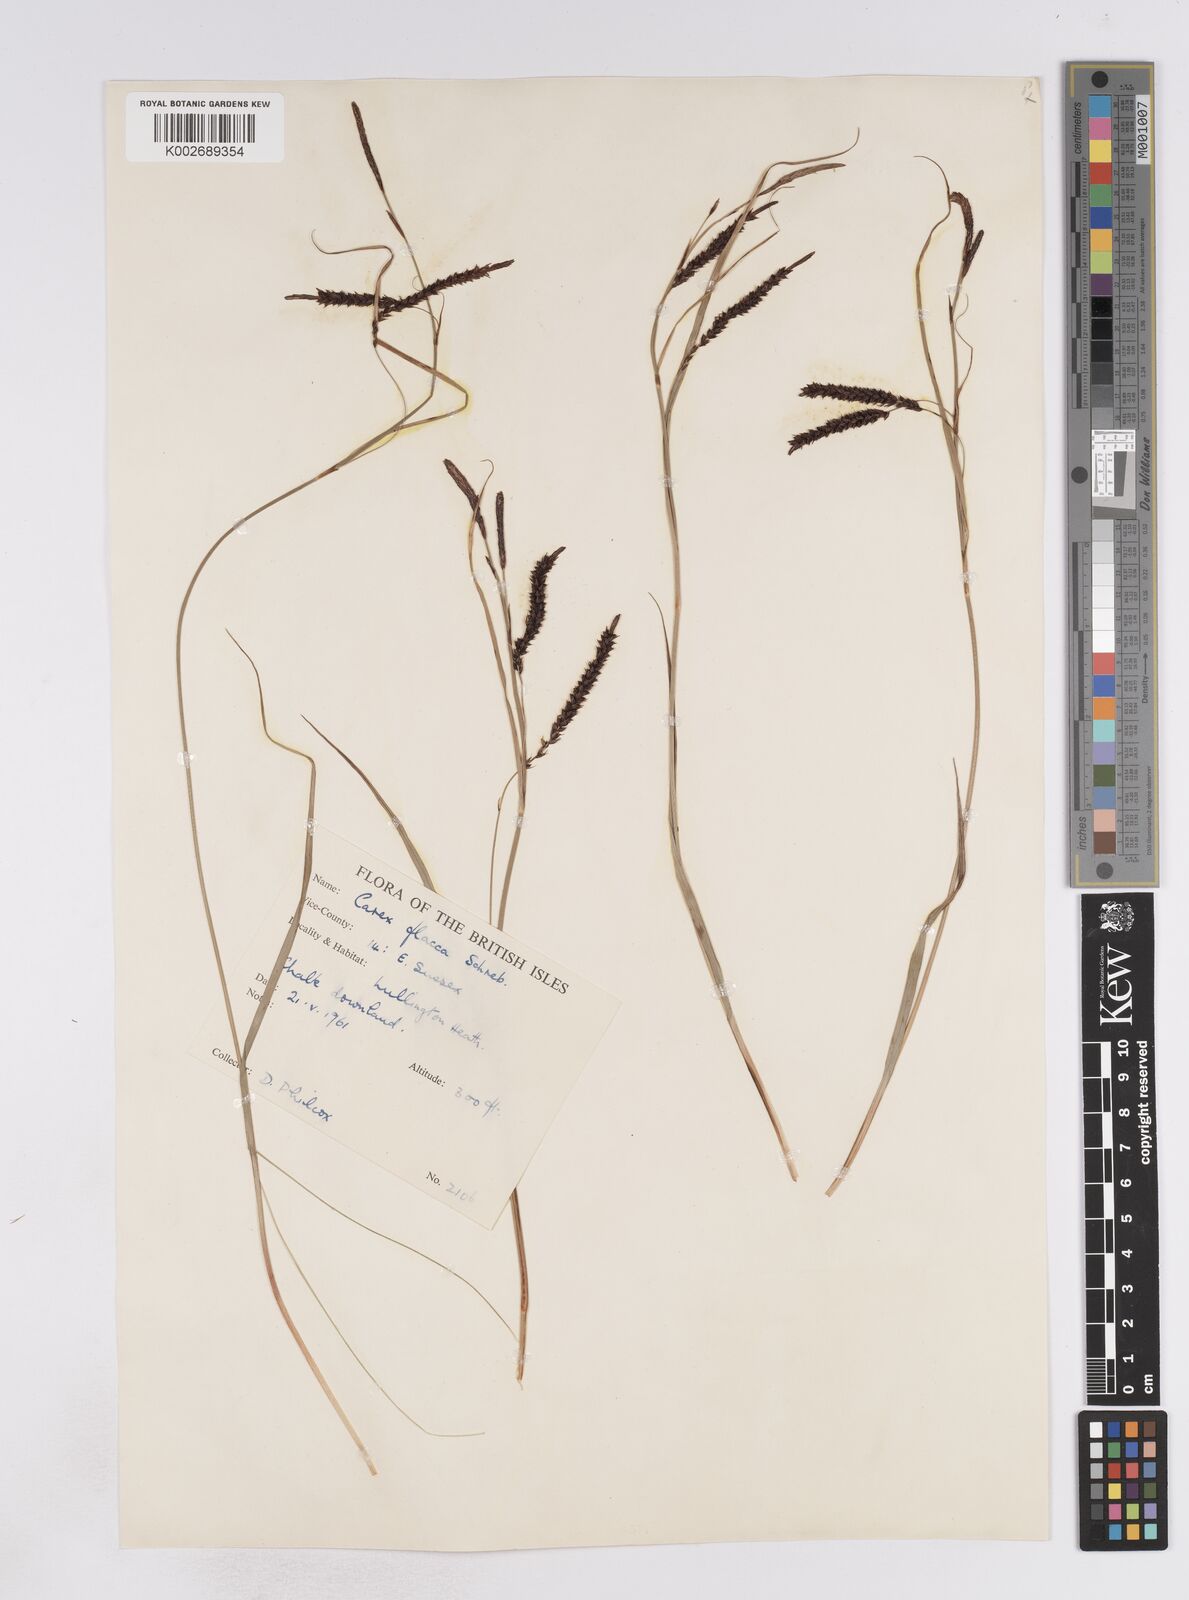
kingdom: Plantae
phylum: Tracheophyta
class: Liliopsida
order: Poales
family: Cyperaceae
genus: Carex
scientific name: Carex flacca
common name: Glaucous sedge
